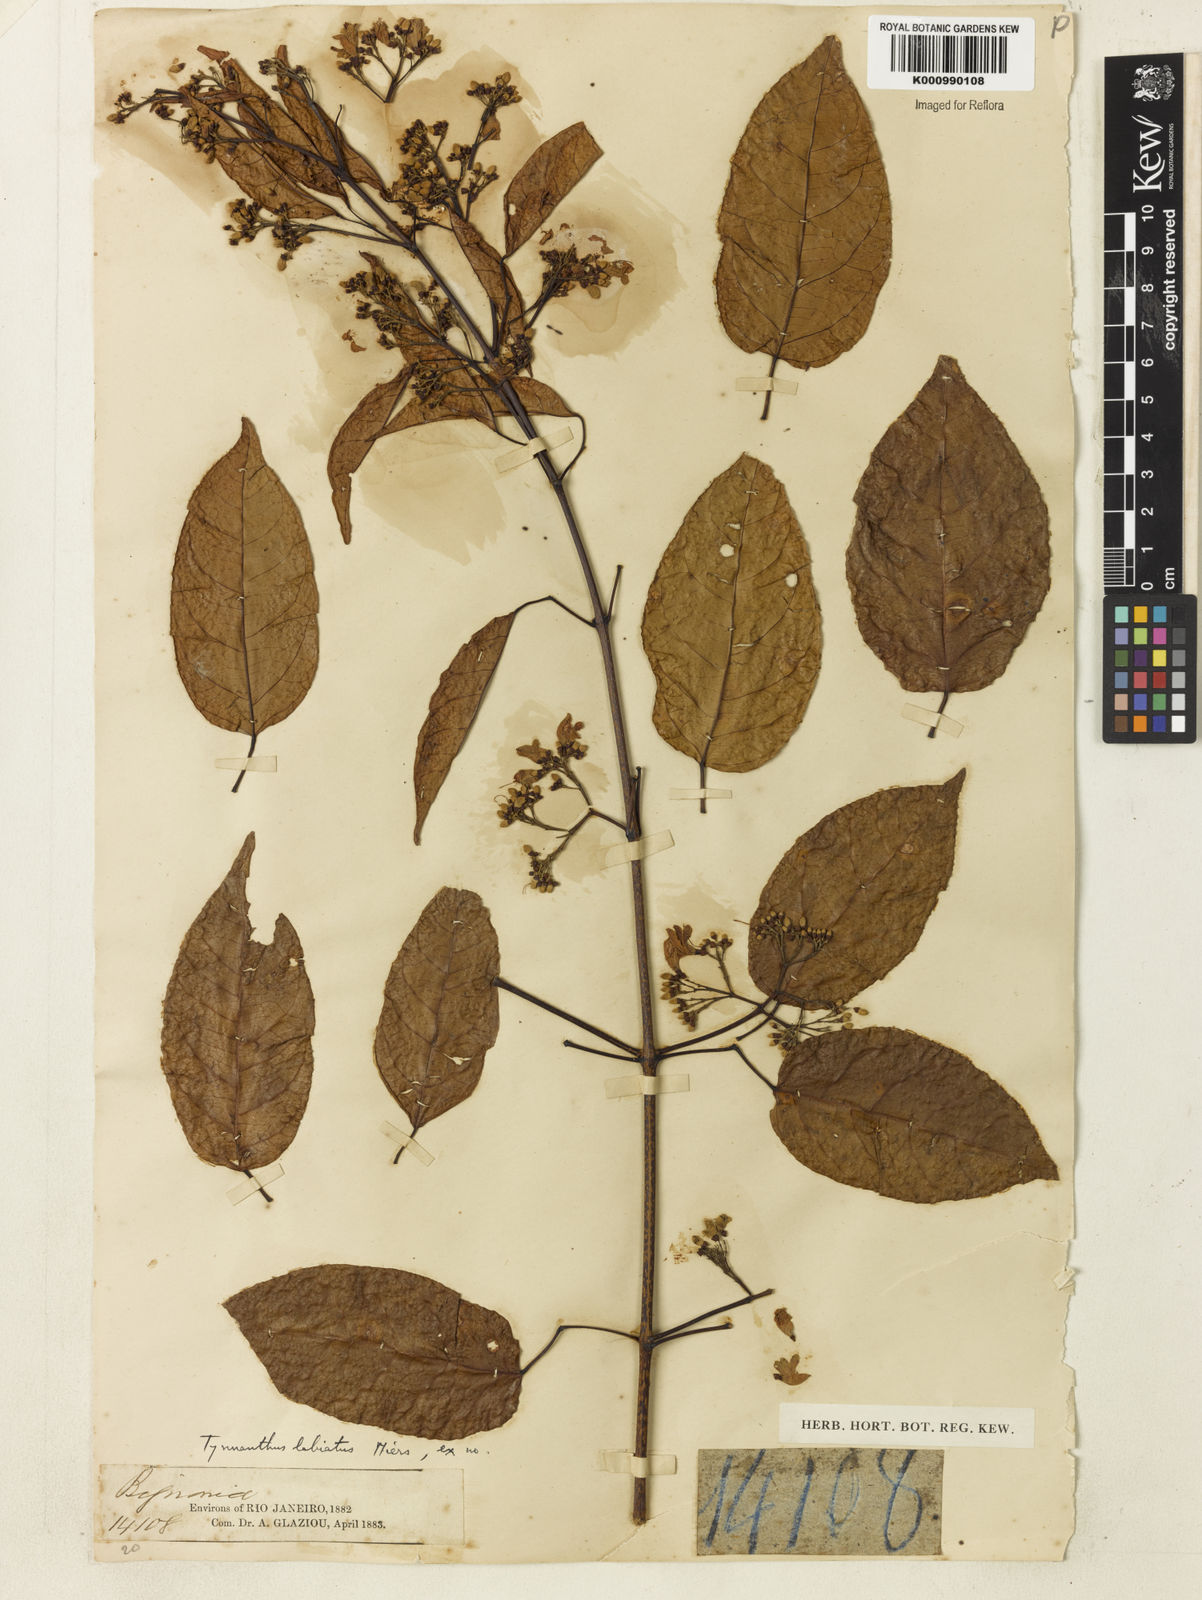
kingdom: Plantae
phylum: Tracheophyta
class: Magnoliopsida
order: Lamiales
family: Bignoniaceae
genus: Tynanthus
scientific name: Tynanthus labiatus
